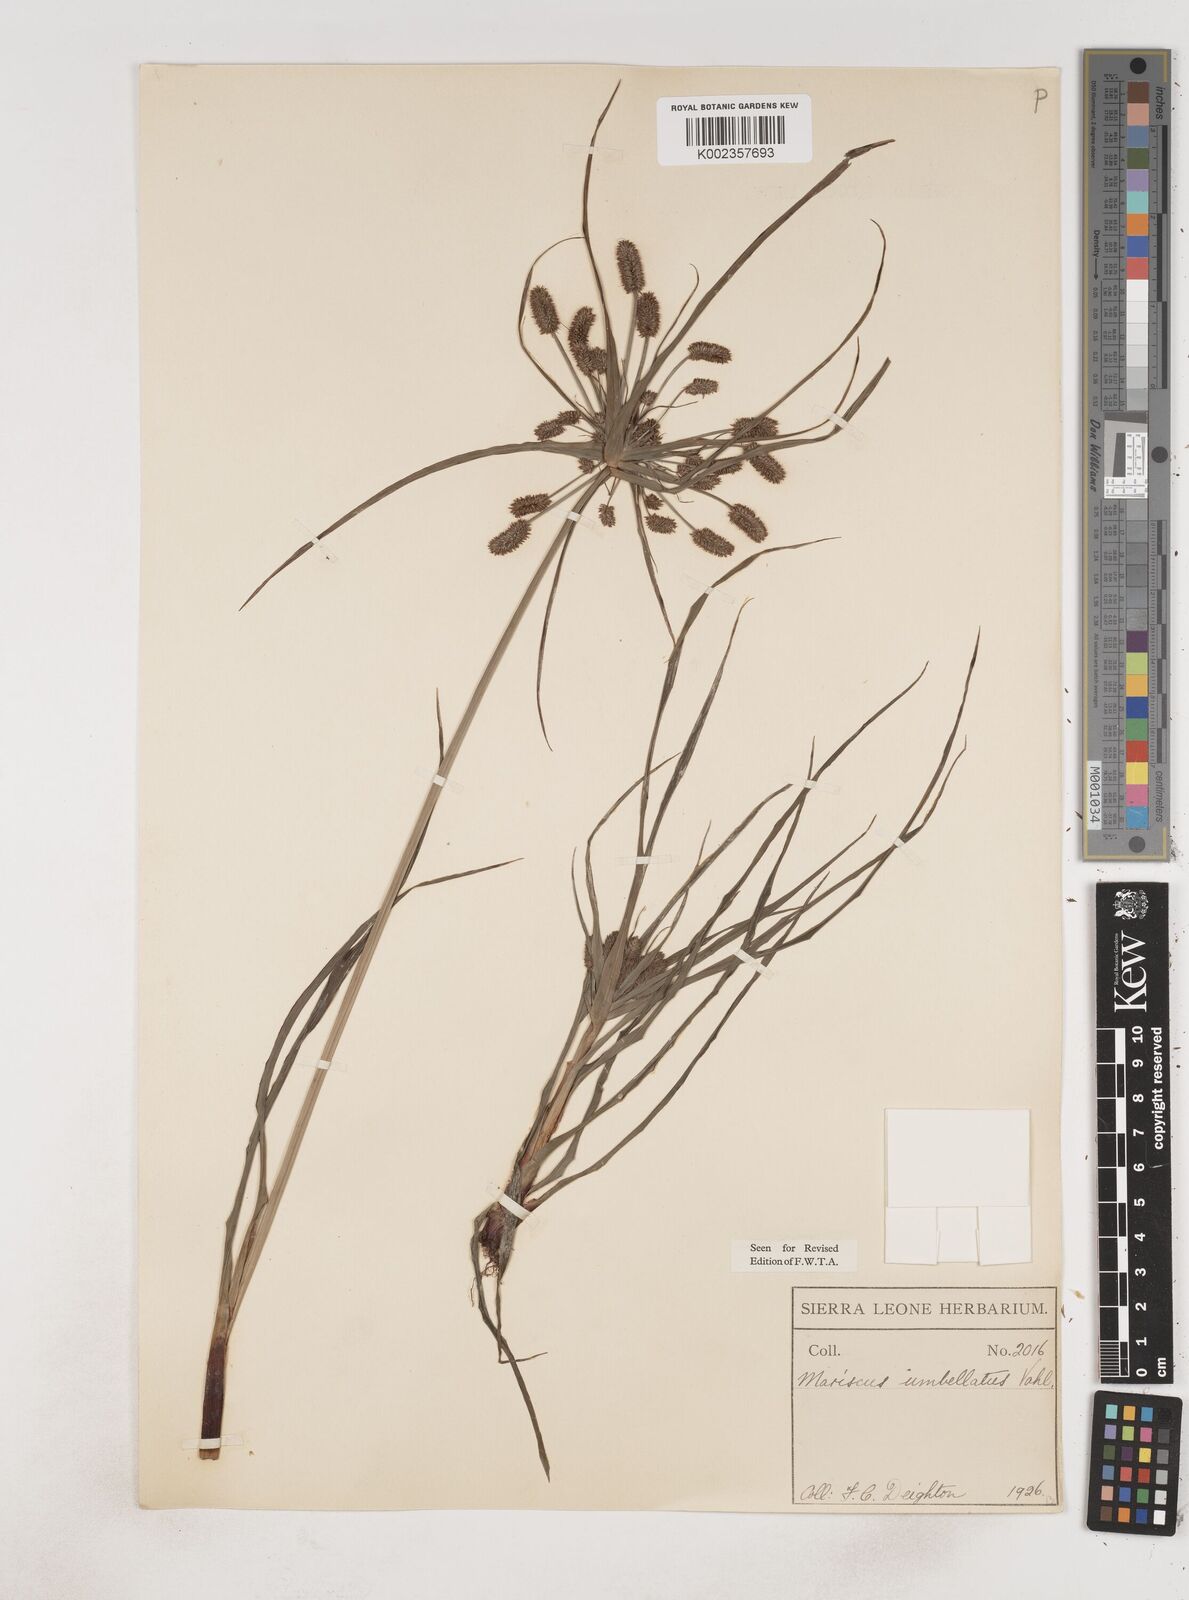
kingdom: Plantae
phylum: Tracheophyta
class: Liliopsida
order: Poales
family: Cyperaceae
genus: Cyperus
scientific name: Cyperus sublimis
